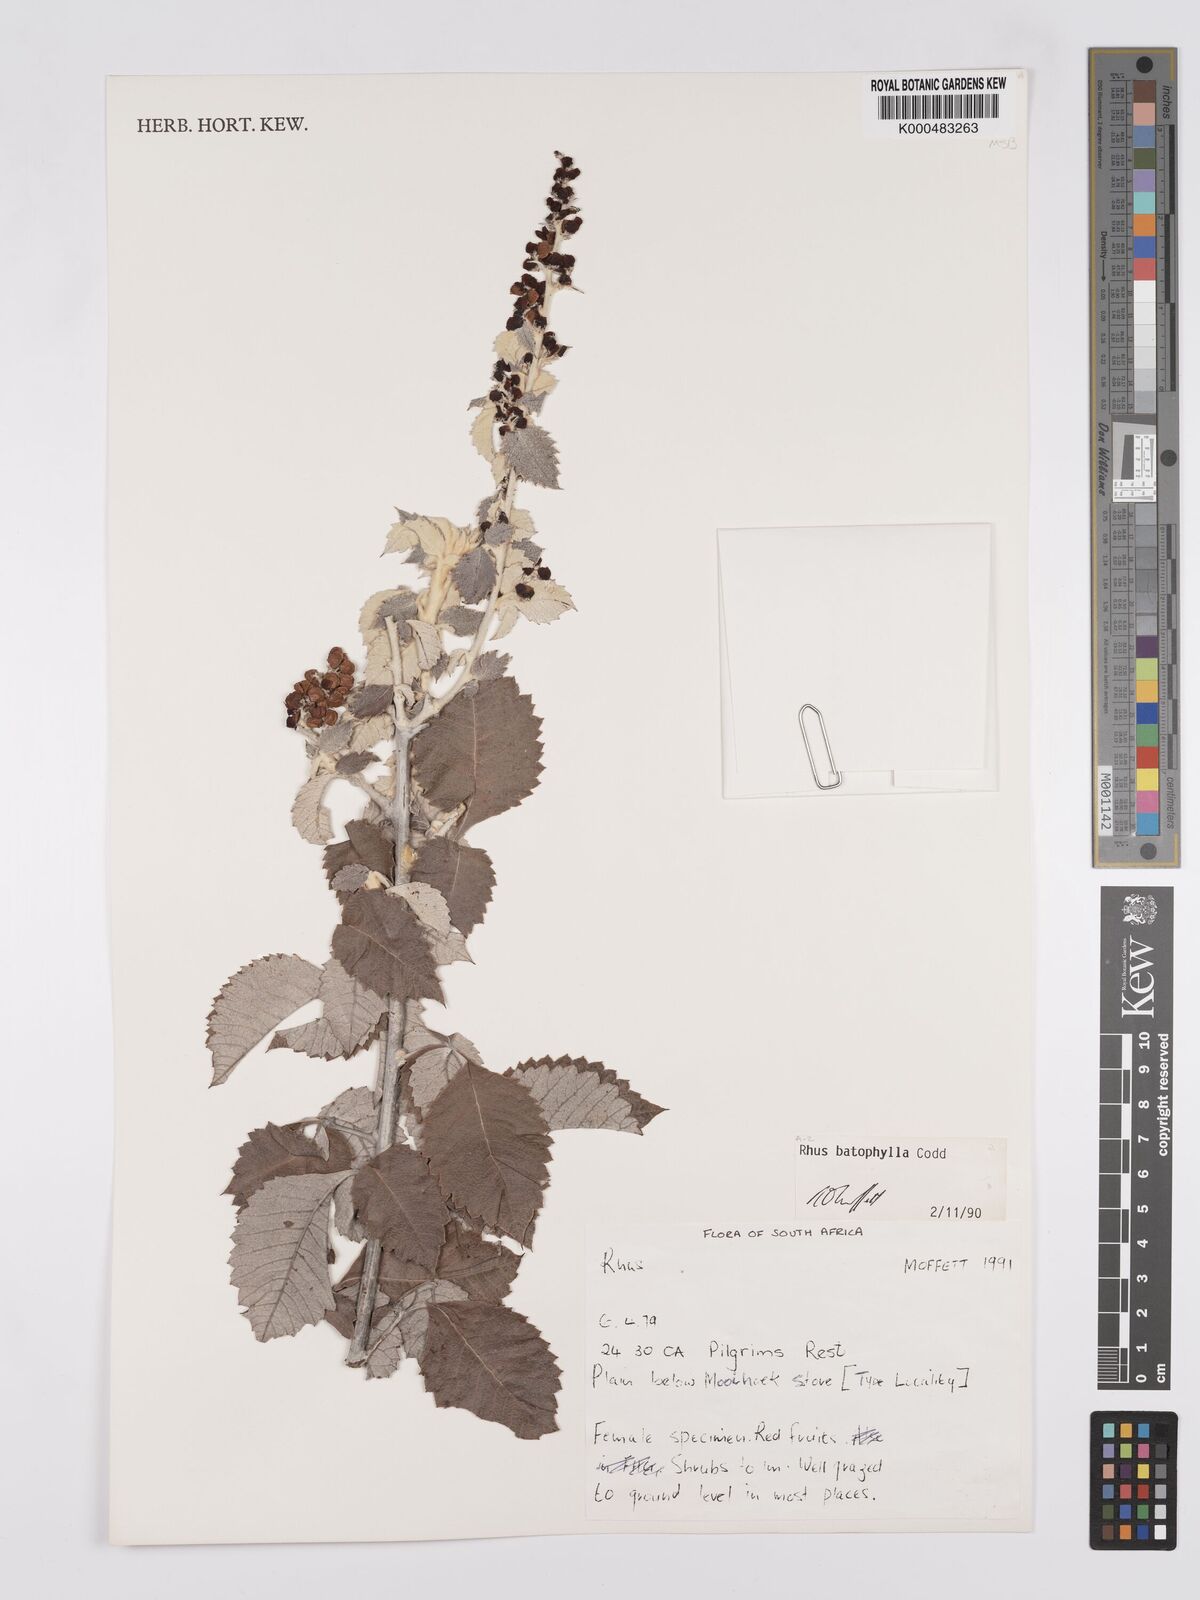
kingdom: Plantae
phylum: Tracheophyta
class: Magnoliopsida
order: Sapindales
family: Anacardiaceae
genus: Searsia
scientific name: Searsia batophylla
